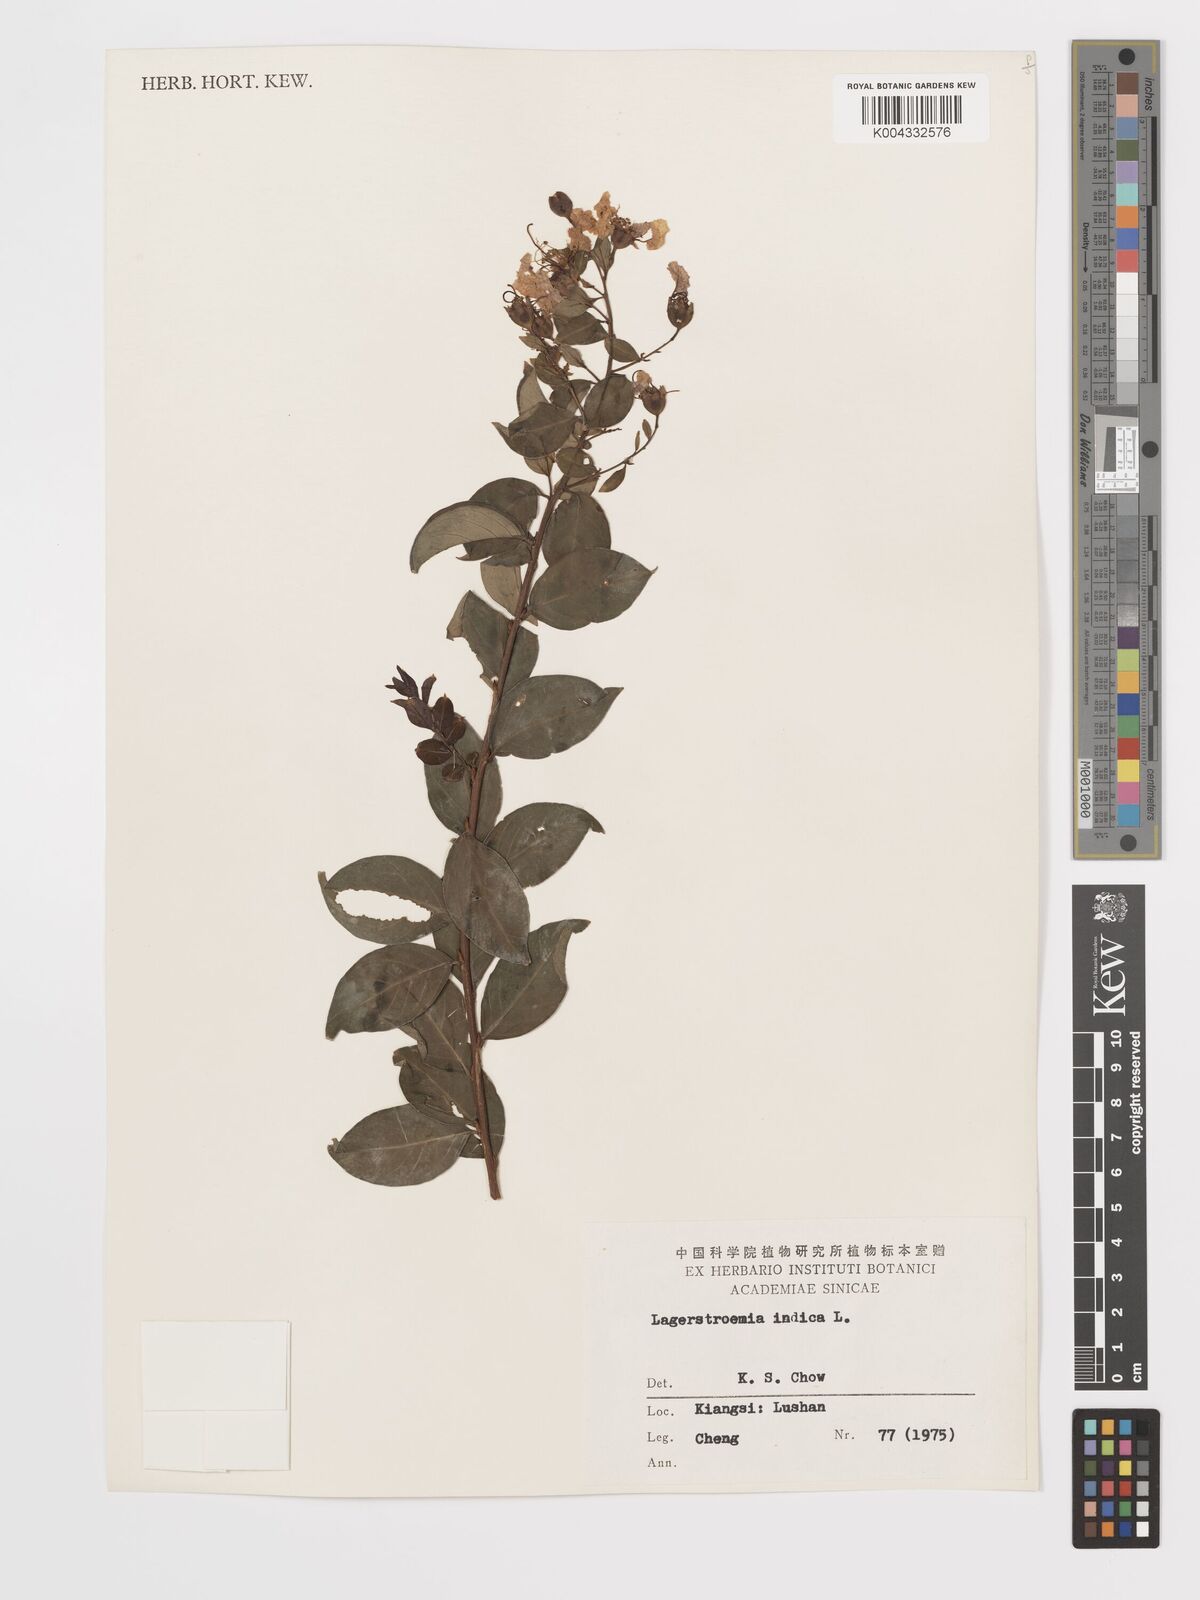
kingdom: Plantae
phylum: Tracheophyta
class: Magnoliopsida
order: Myrtales
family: Lythraceae
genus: Lagerstroemia
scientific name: Lagerstroemia indica
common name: Crape-myrtle
